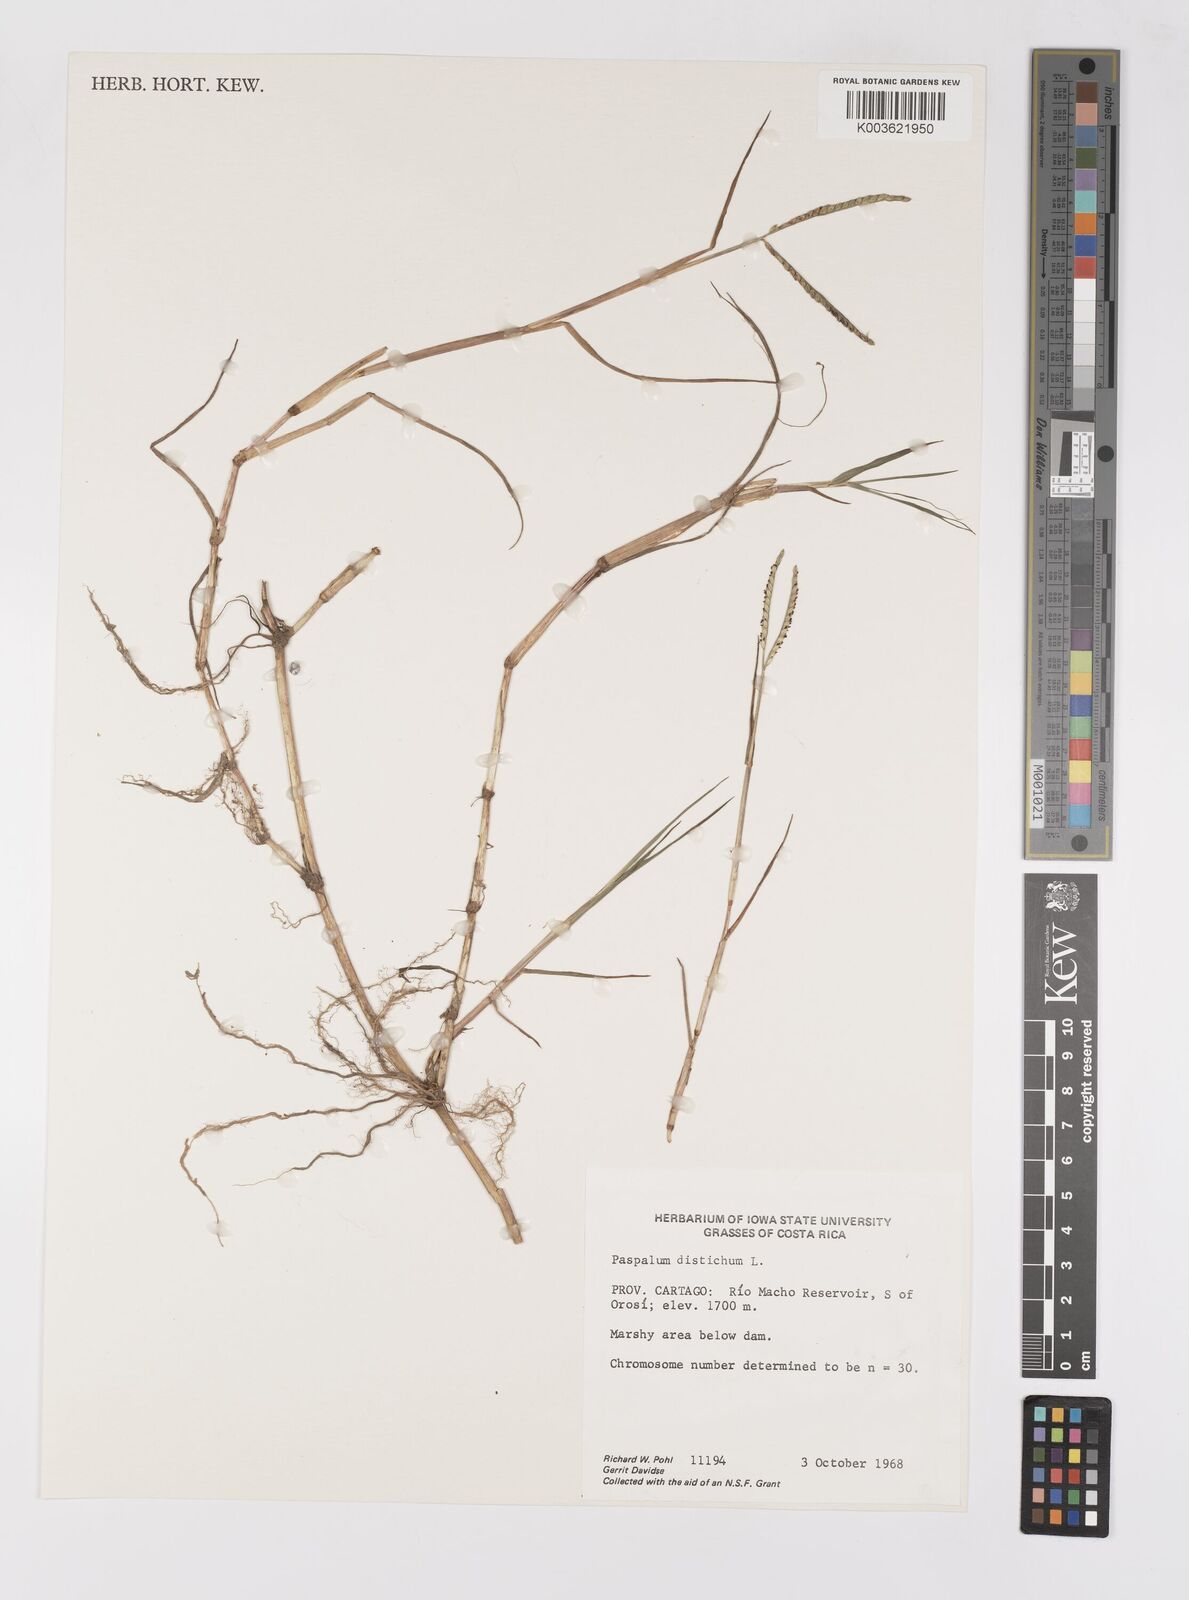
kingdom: Plantae
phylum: Tracheophyta
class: Liliopsida
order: Poales
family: Poaceae
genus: Paspalum
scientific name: Paspalum distichum
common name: Knotgrass
